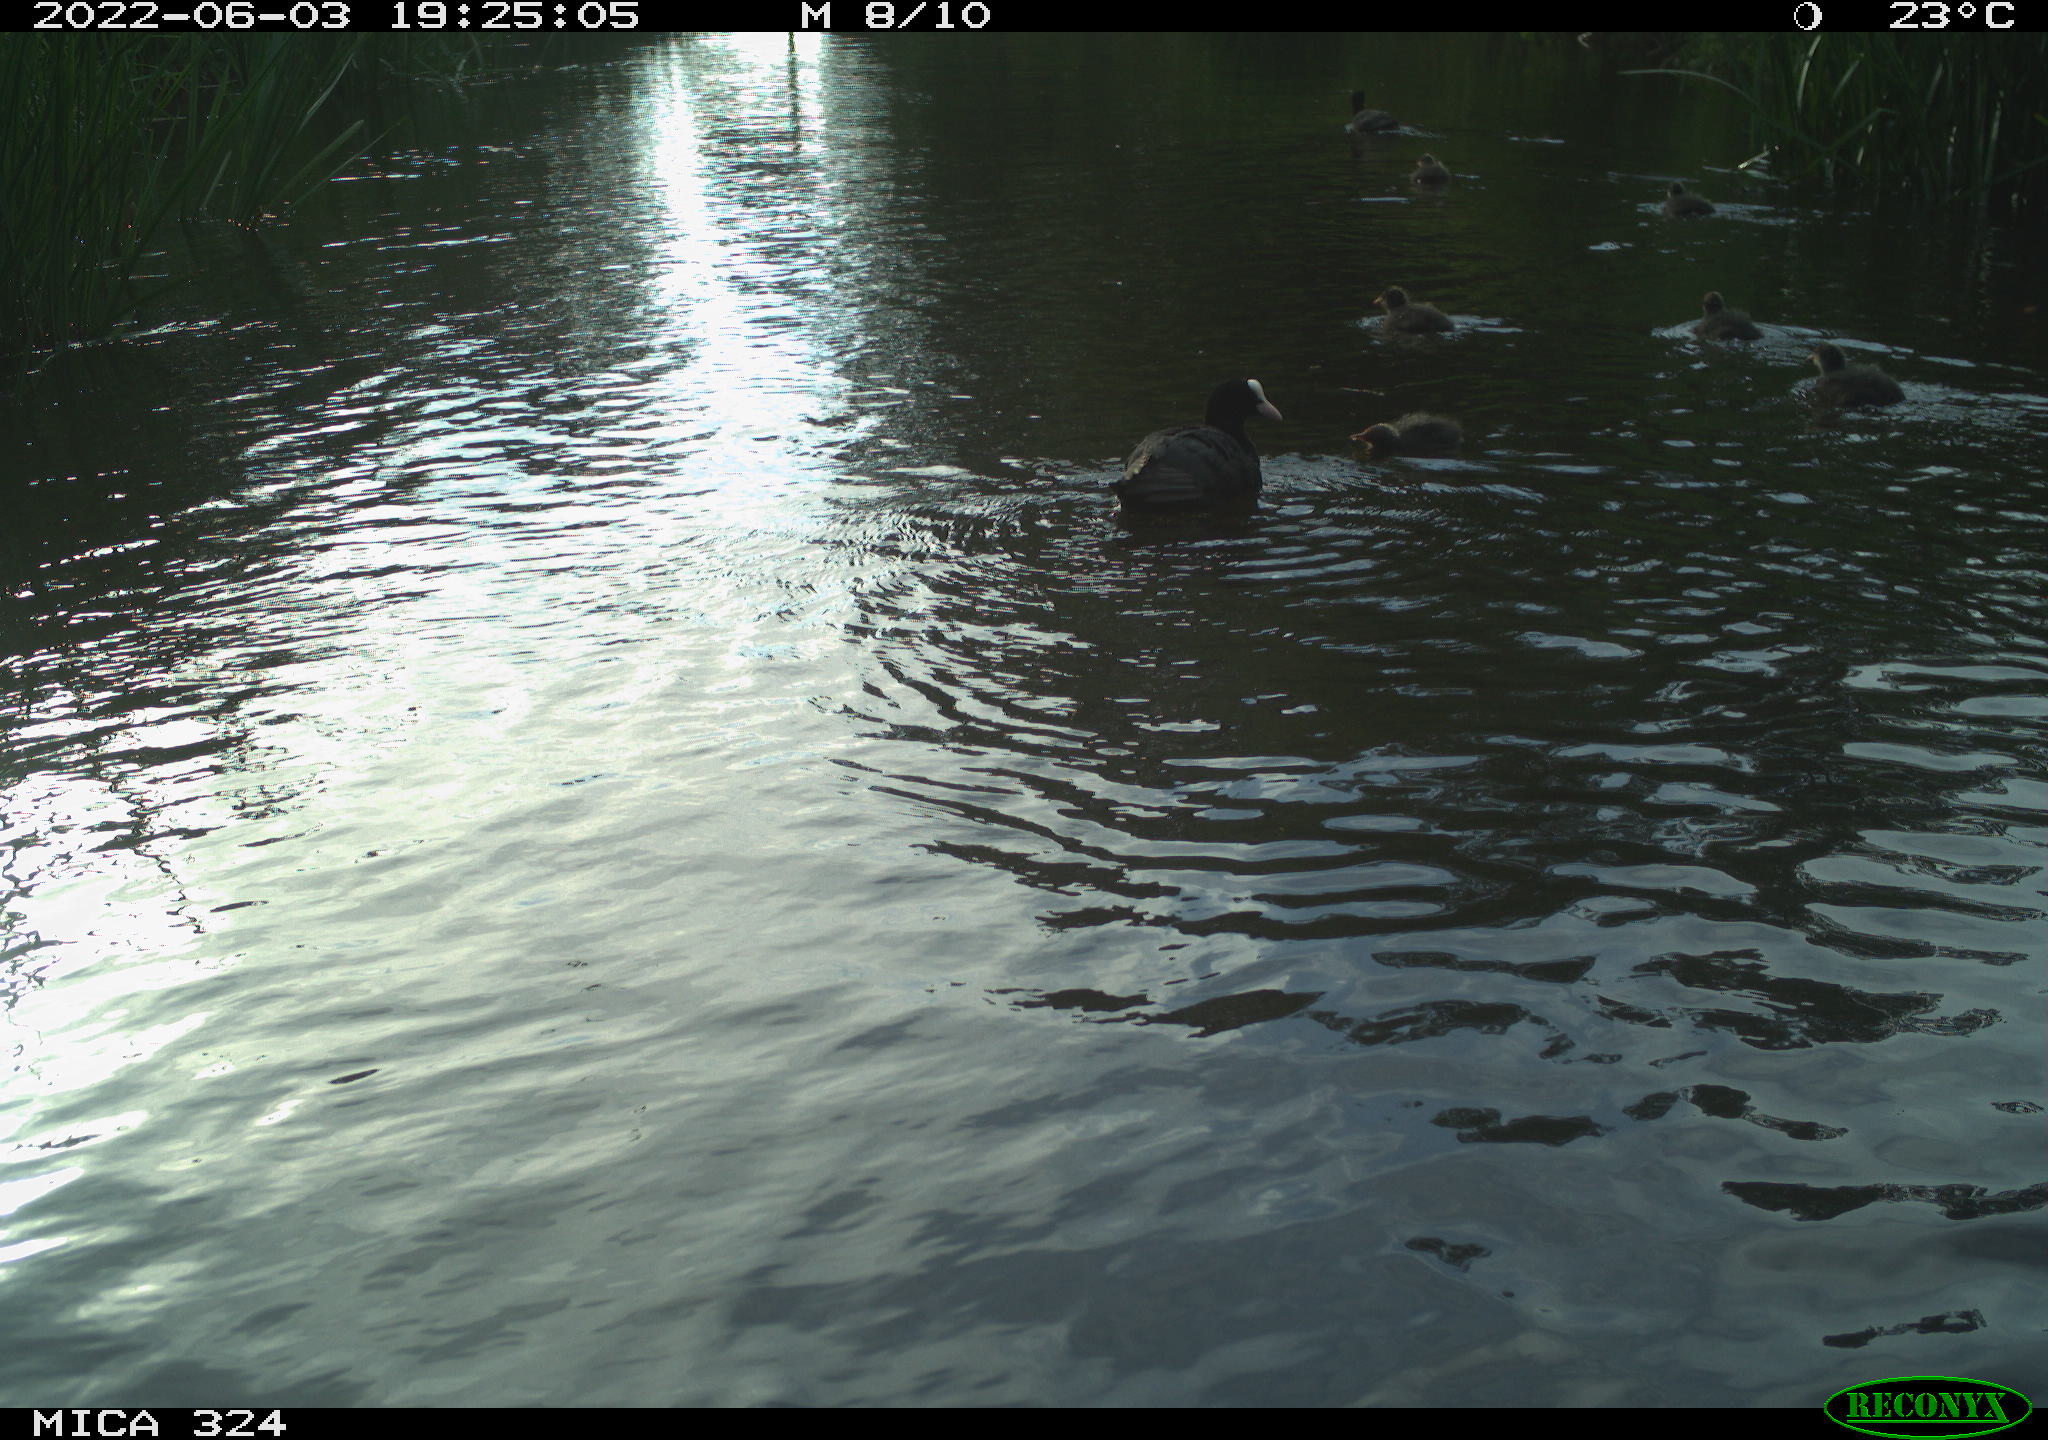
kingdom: Animalia
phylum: Chordata
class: Aves
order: Gruiformes
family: Rallidae
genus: Fulica
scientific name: Fulica atra
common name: Eurasian coot
